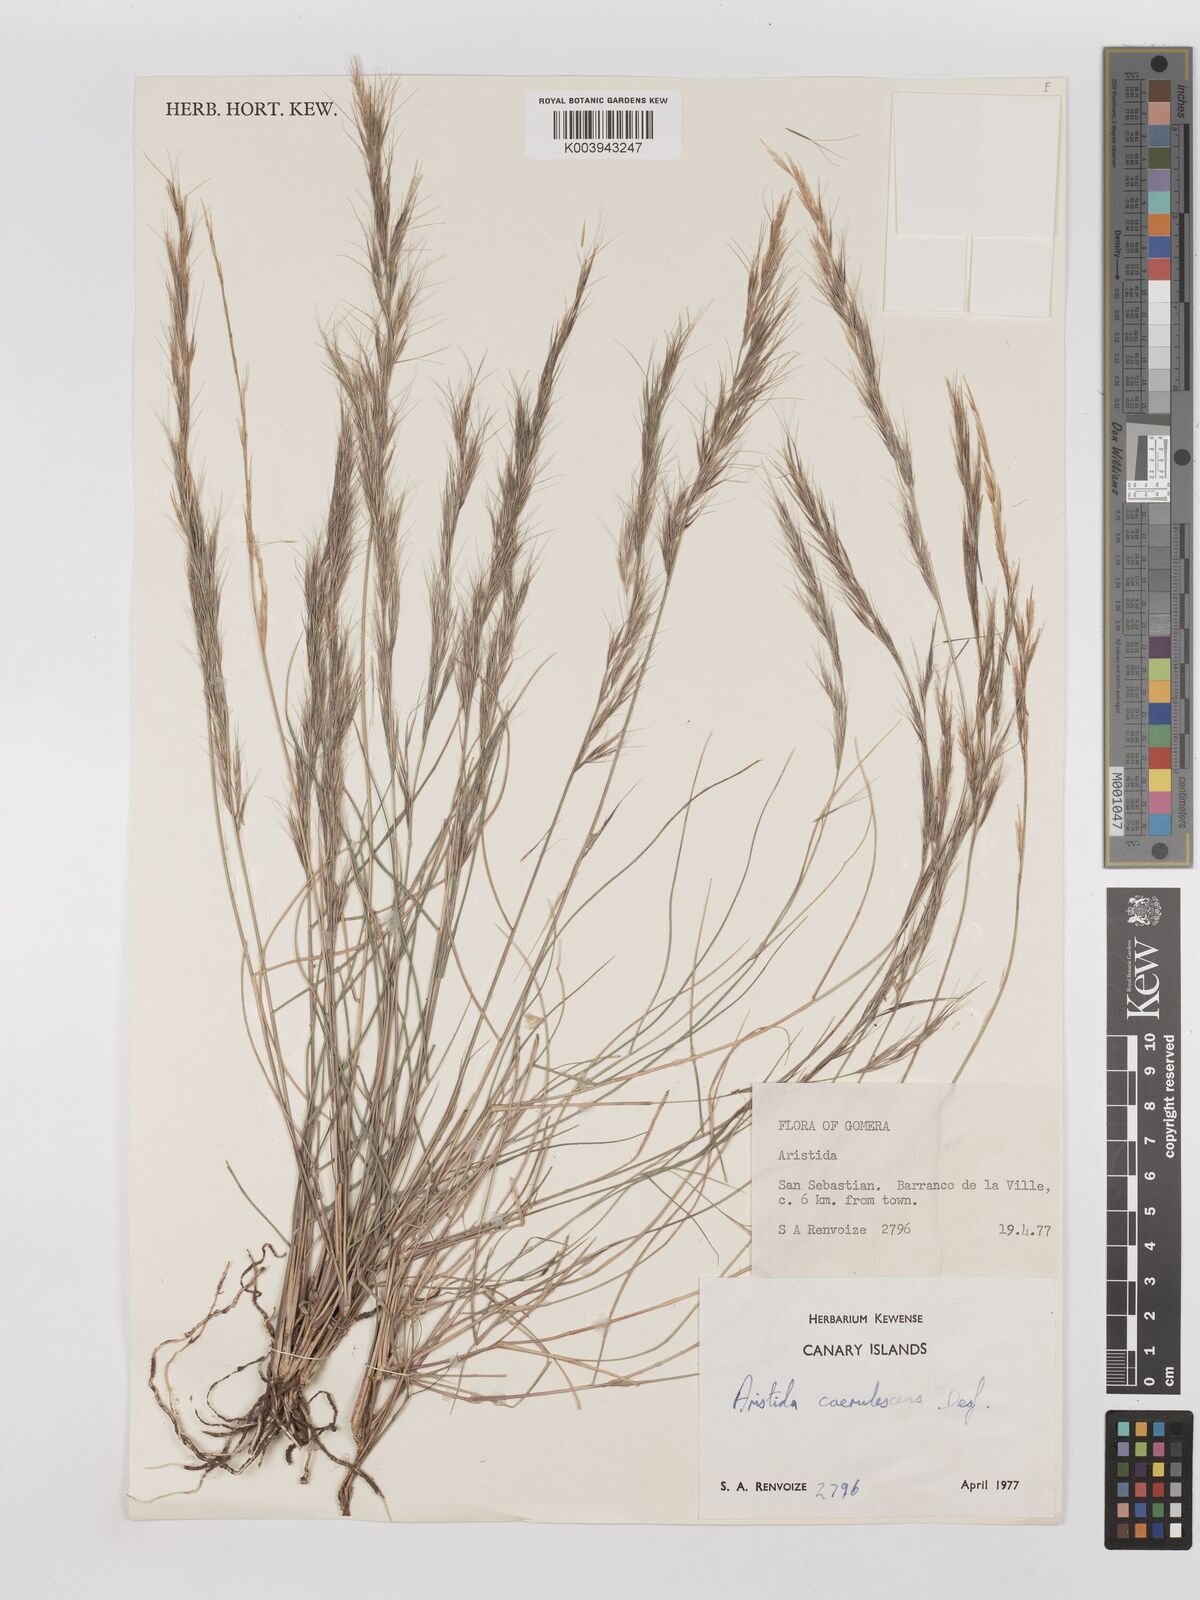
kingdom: Plantae
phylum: Tracheophyta
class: Liliopsida
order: Poales
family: Poaceae
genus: Aristida
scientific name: Aristida adscensionis
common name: Sixweeks threeawn
